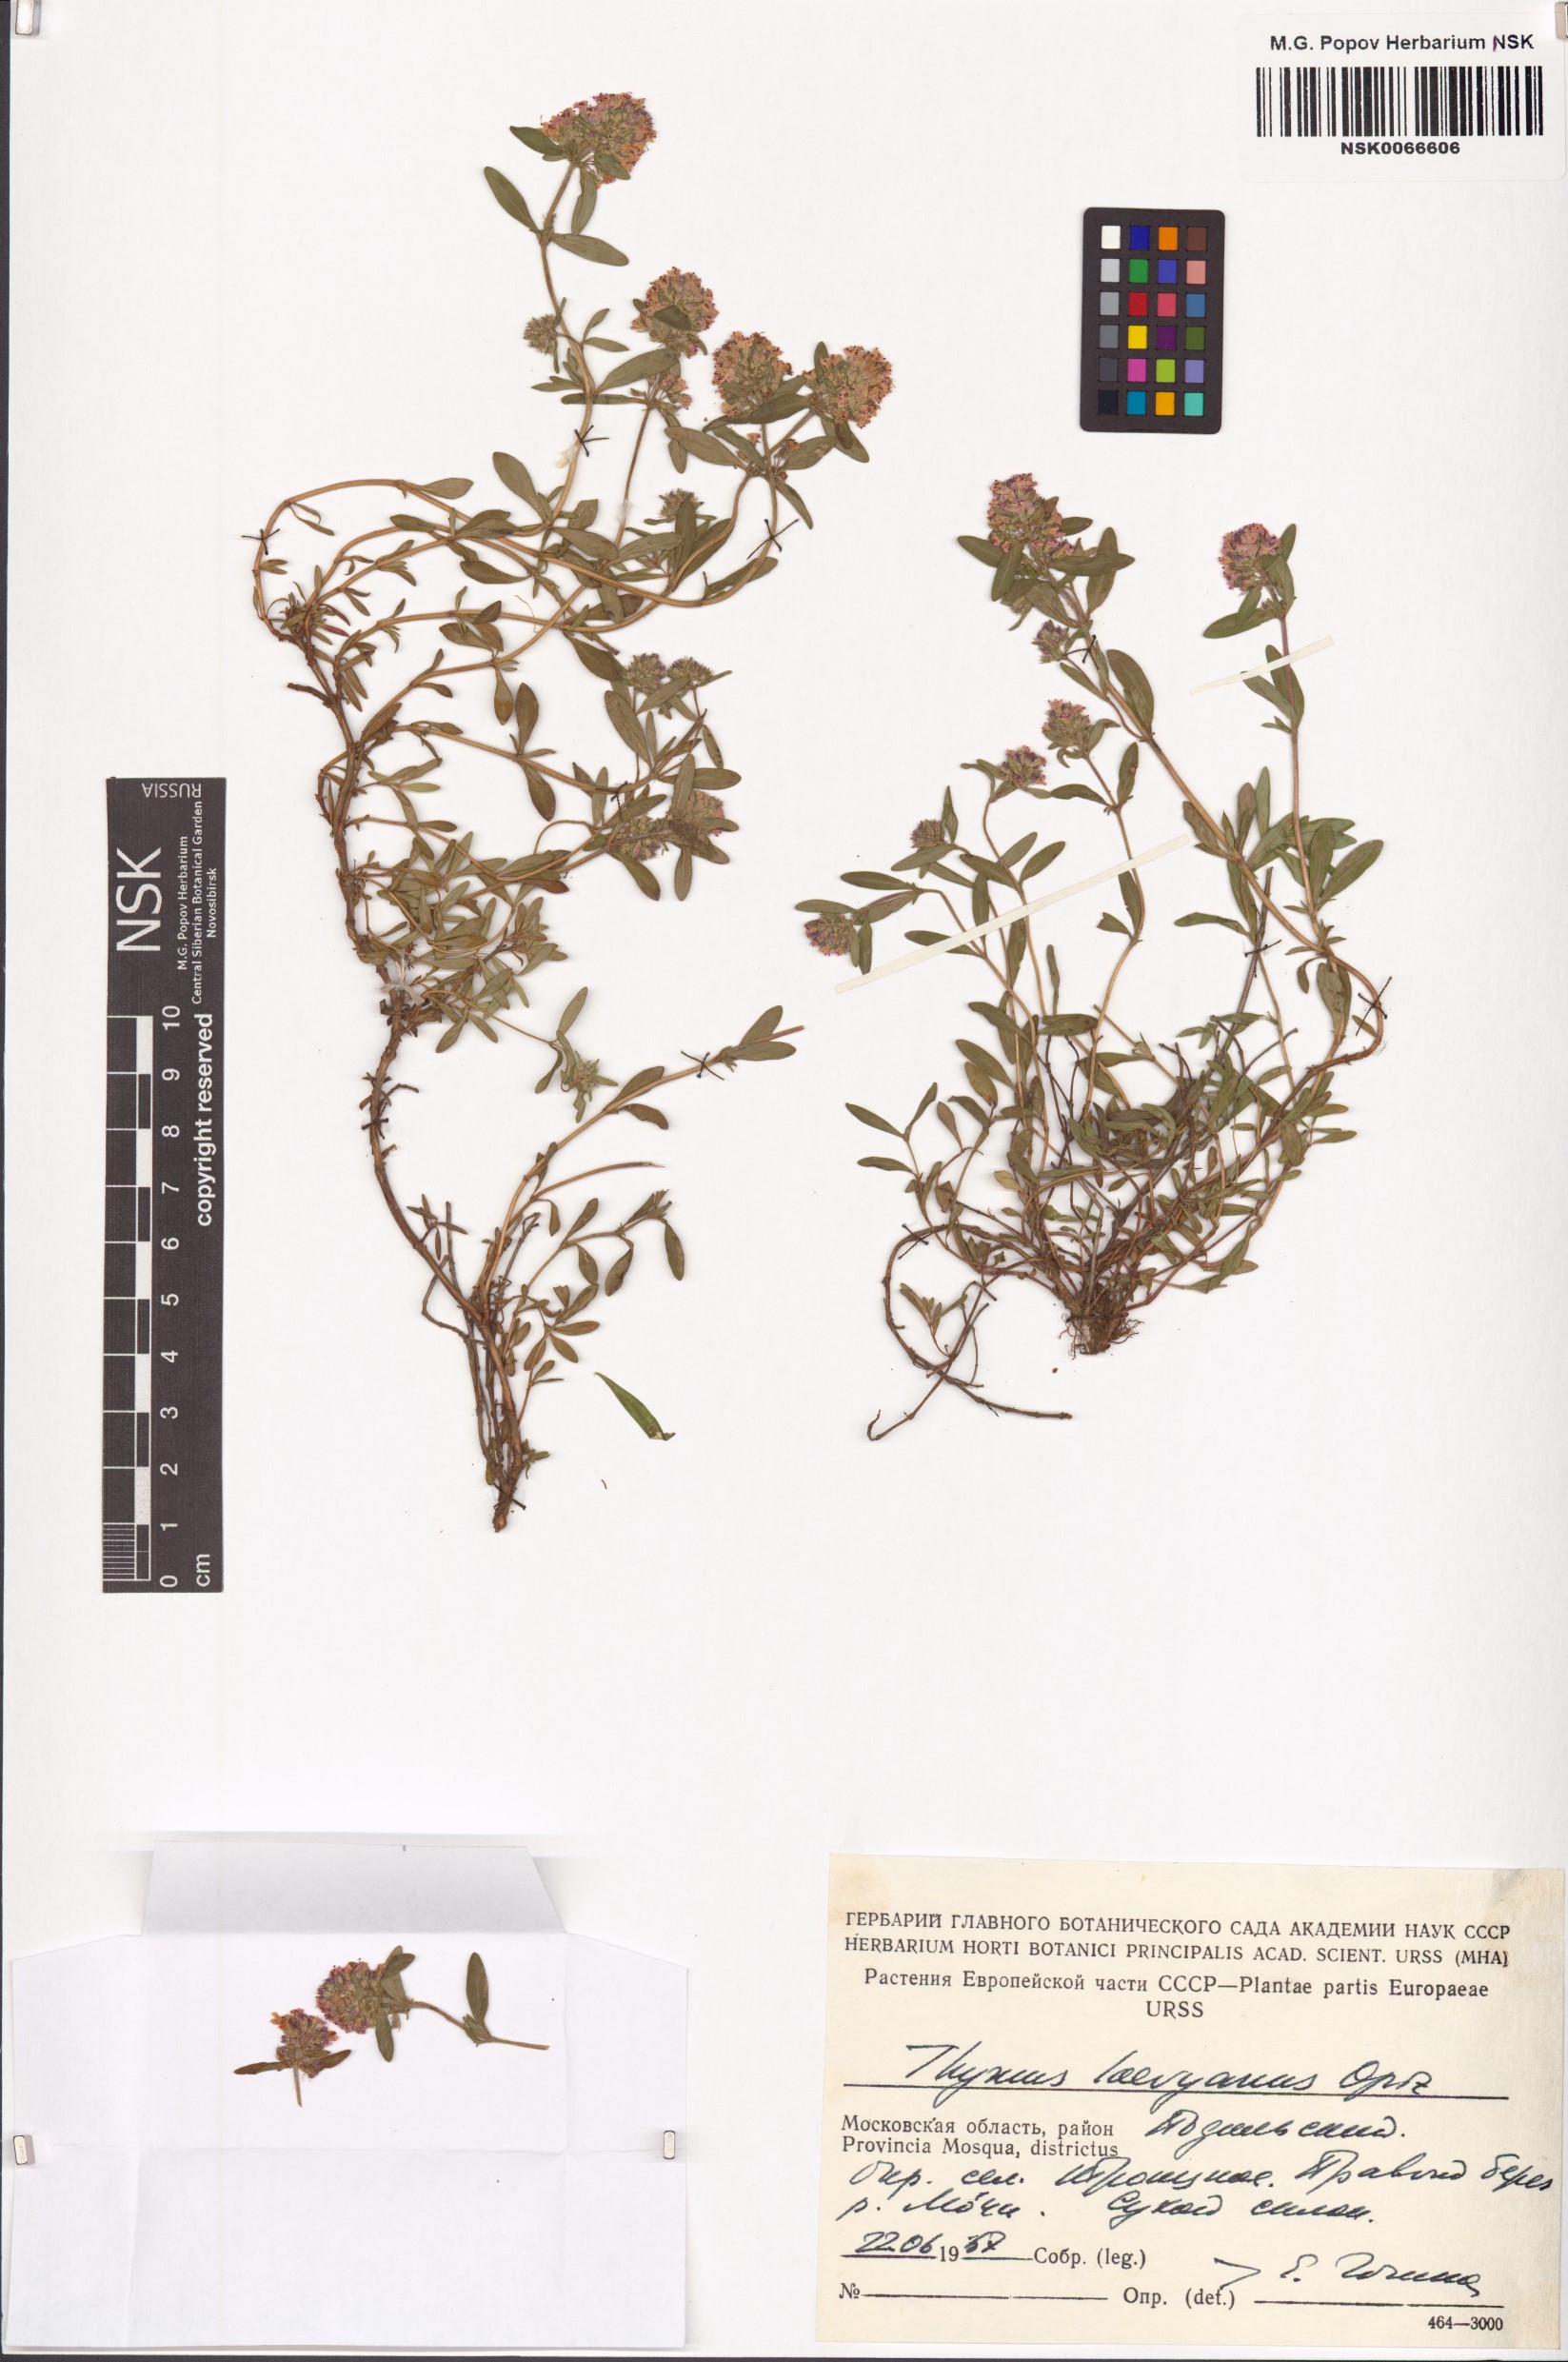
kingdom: Plantae
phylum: Tracheophyta
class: Magnoliopsida
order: Lamiales
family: Lamiaceae
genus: Thymus
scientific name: Thymus odoratissimus
